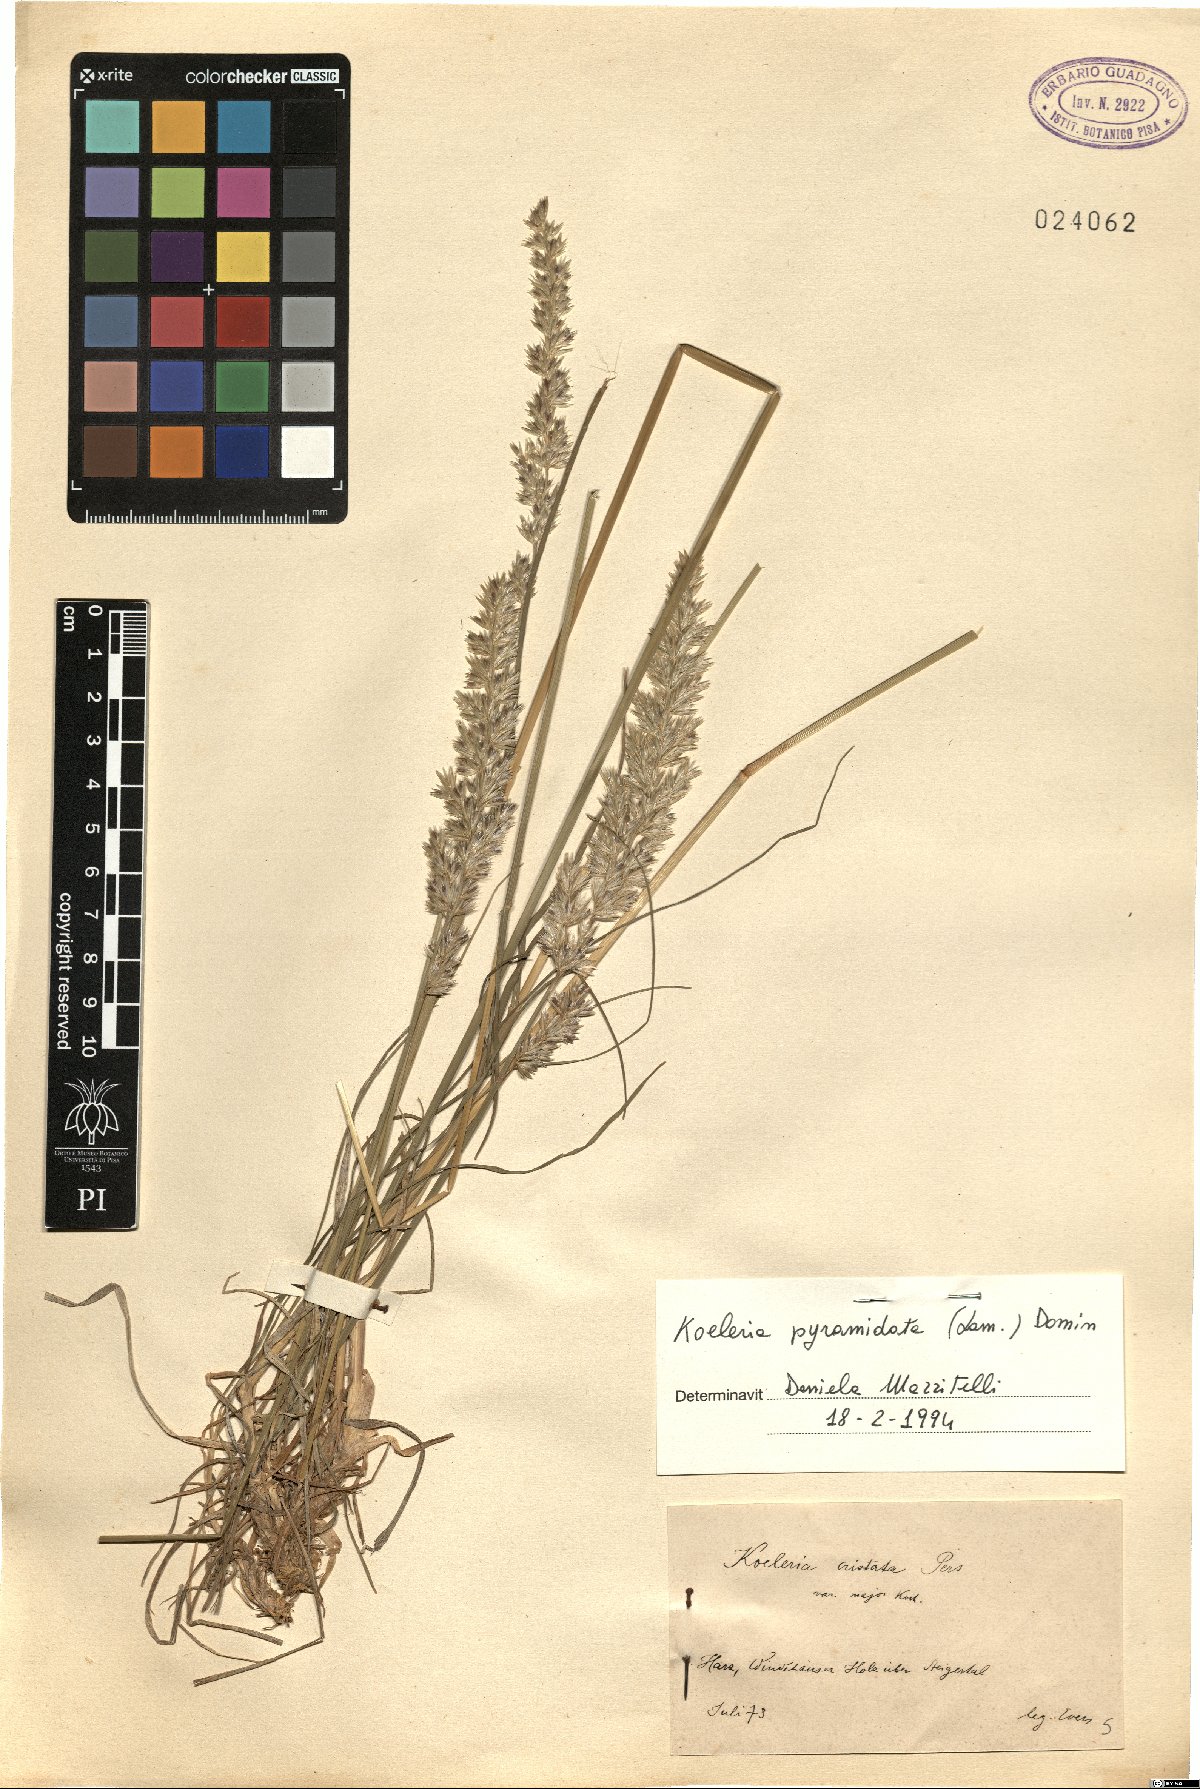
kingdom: Plantae
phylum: Tracheophyta
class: Liliopsida
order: Poales
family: Poaceae
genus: Koeleria
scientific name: Koeleria pyramidata
